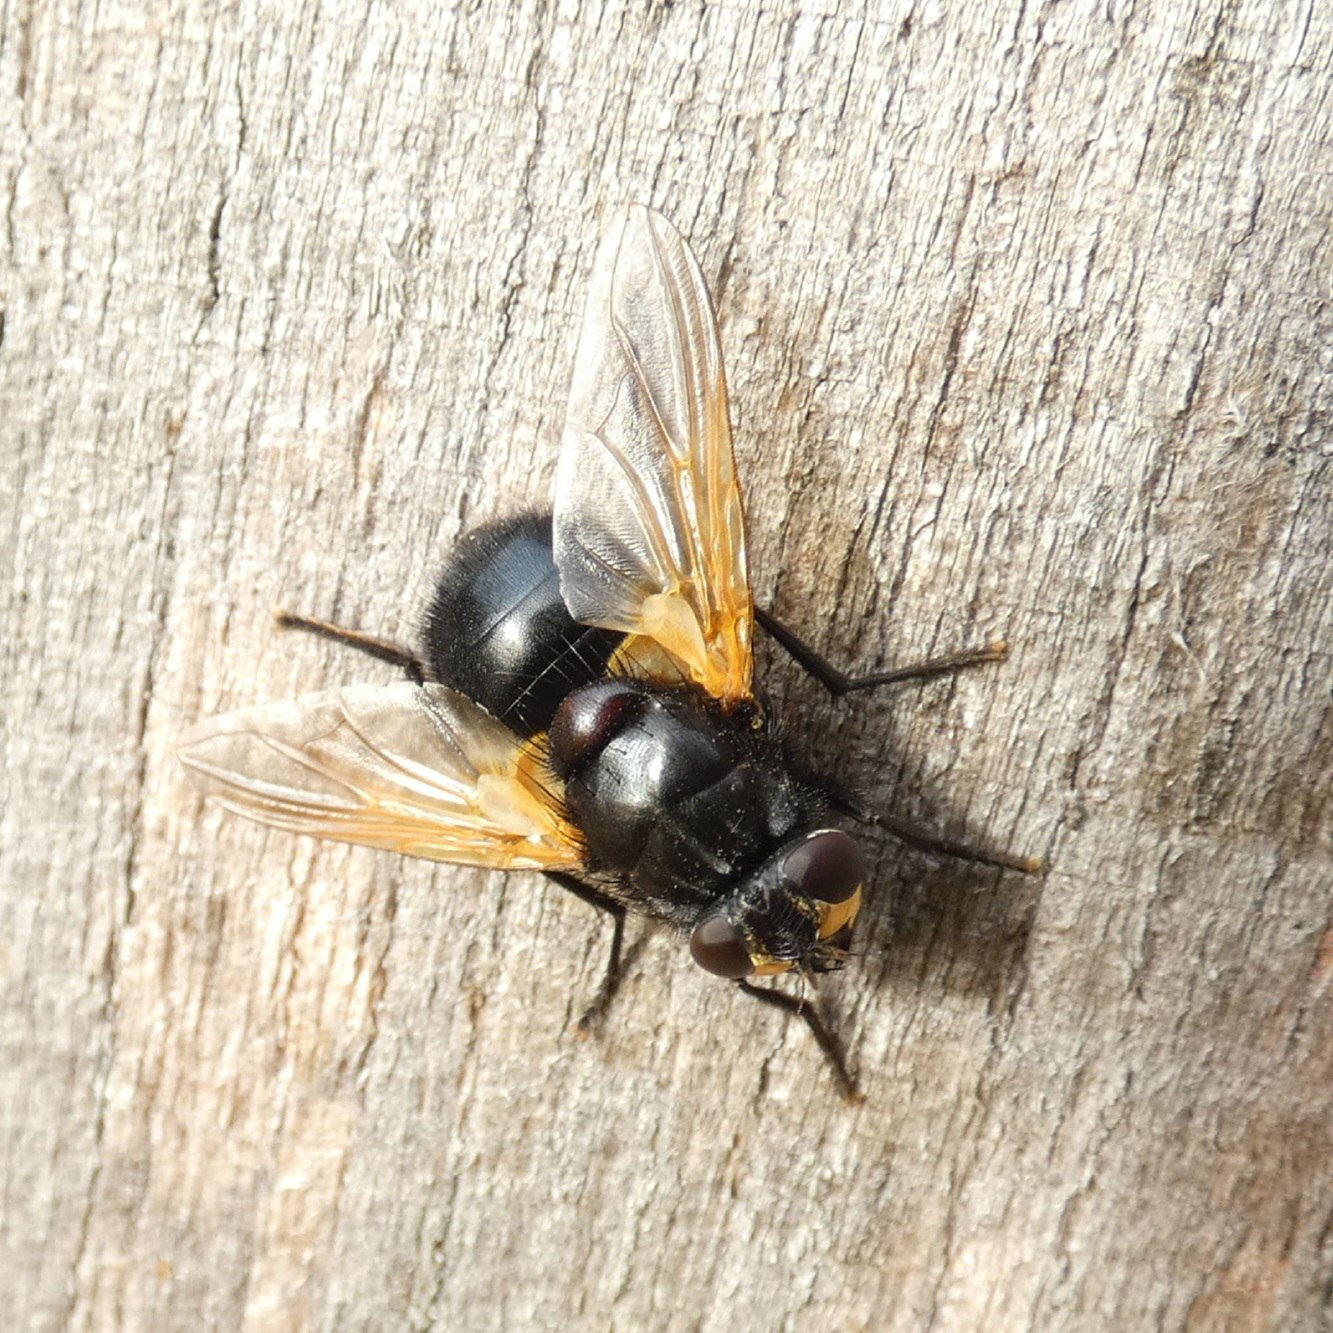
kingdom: Animalia
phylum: Arthropoda
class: Insecta
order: Diptera
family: Muscidae
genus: Mesembrina
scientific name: Mesembrina meridiana
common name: Gulvinget flue
